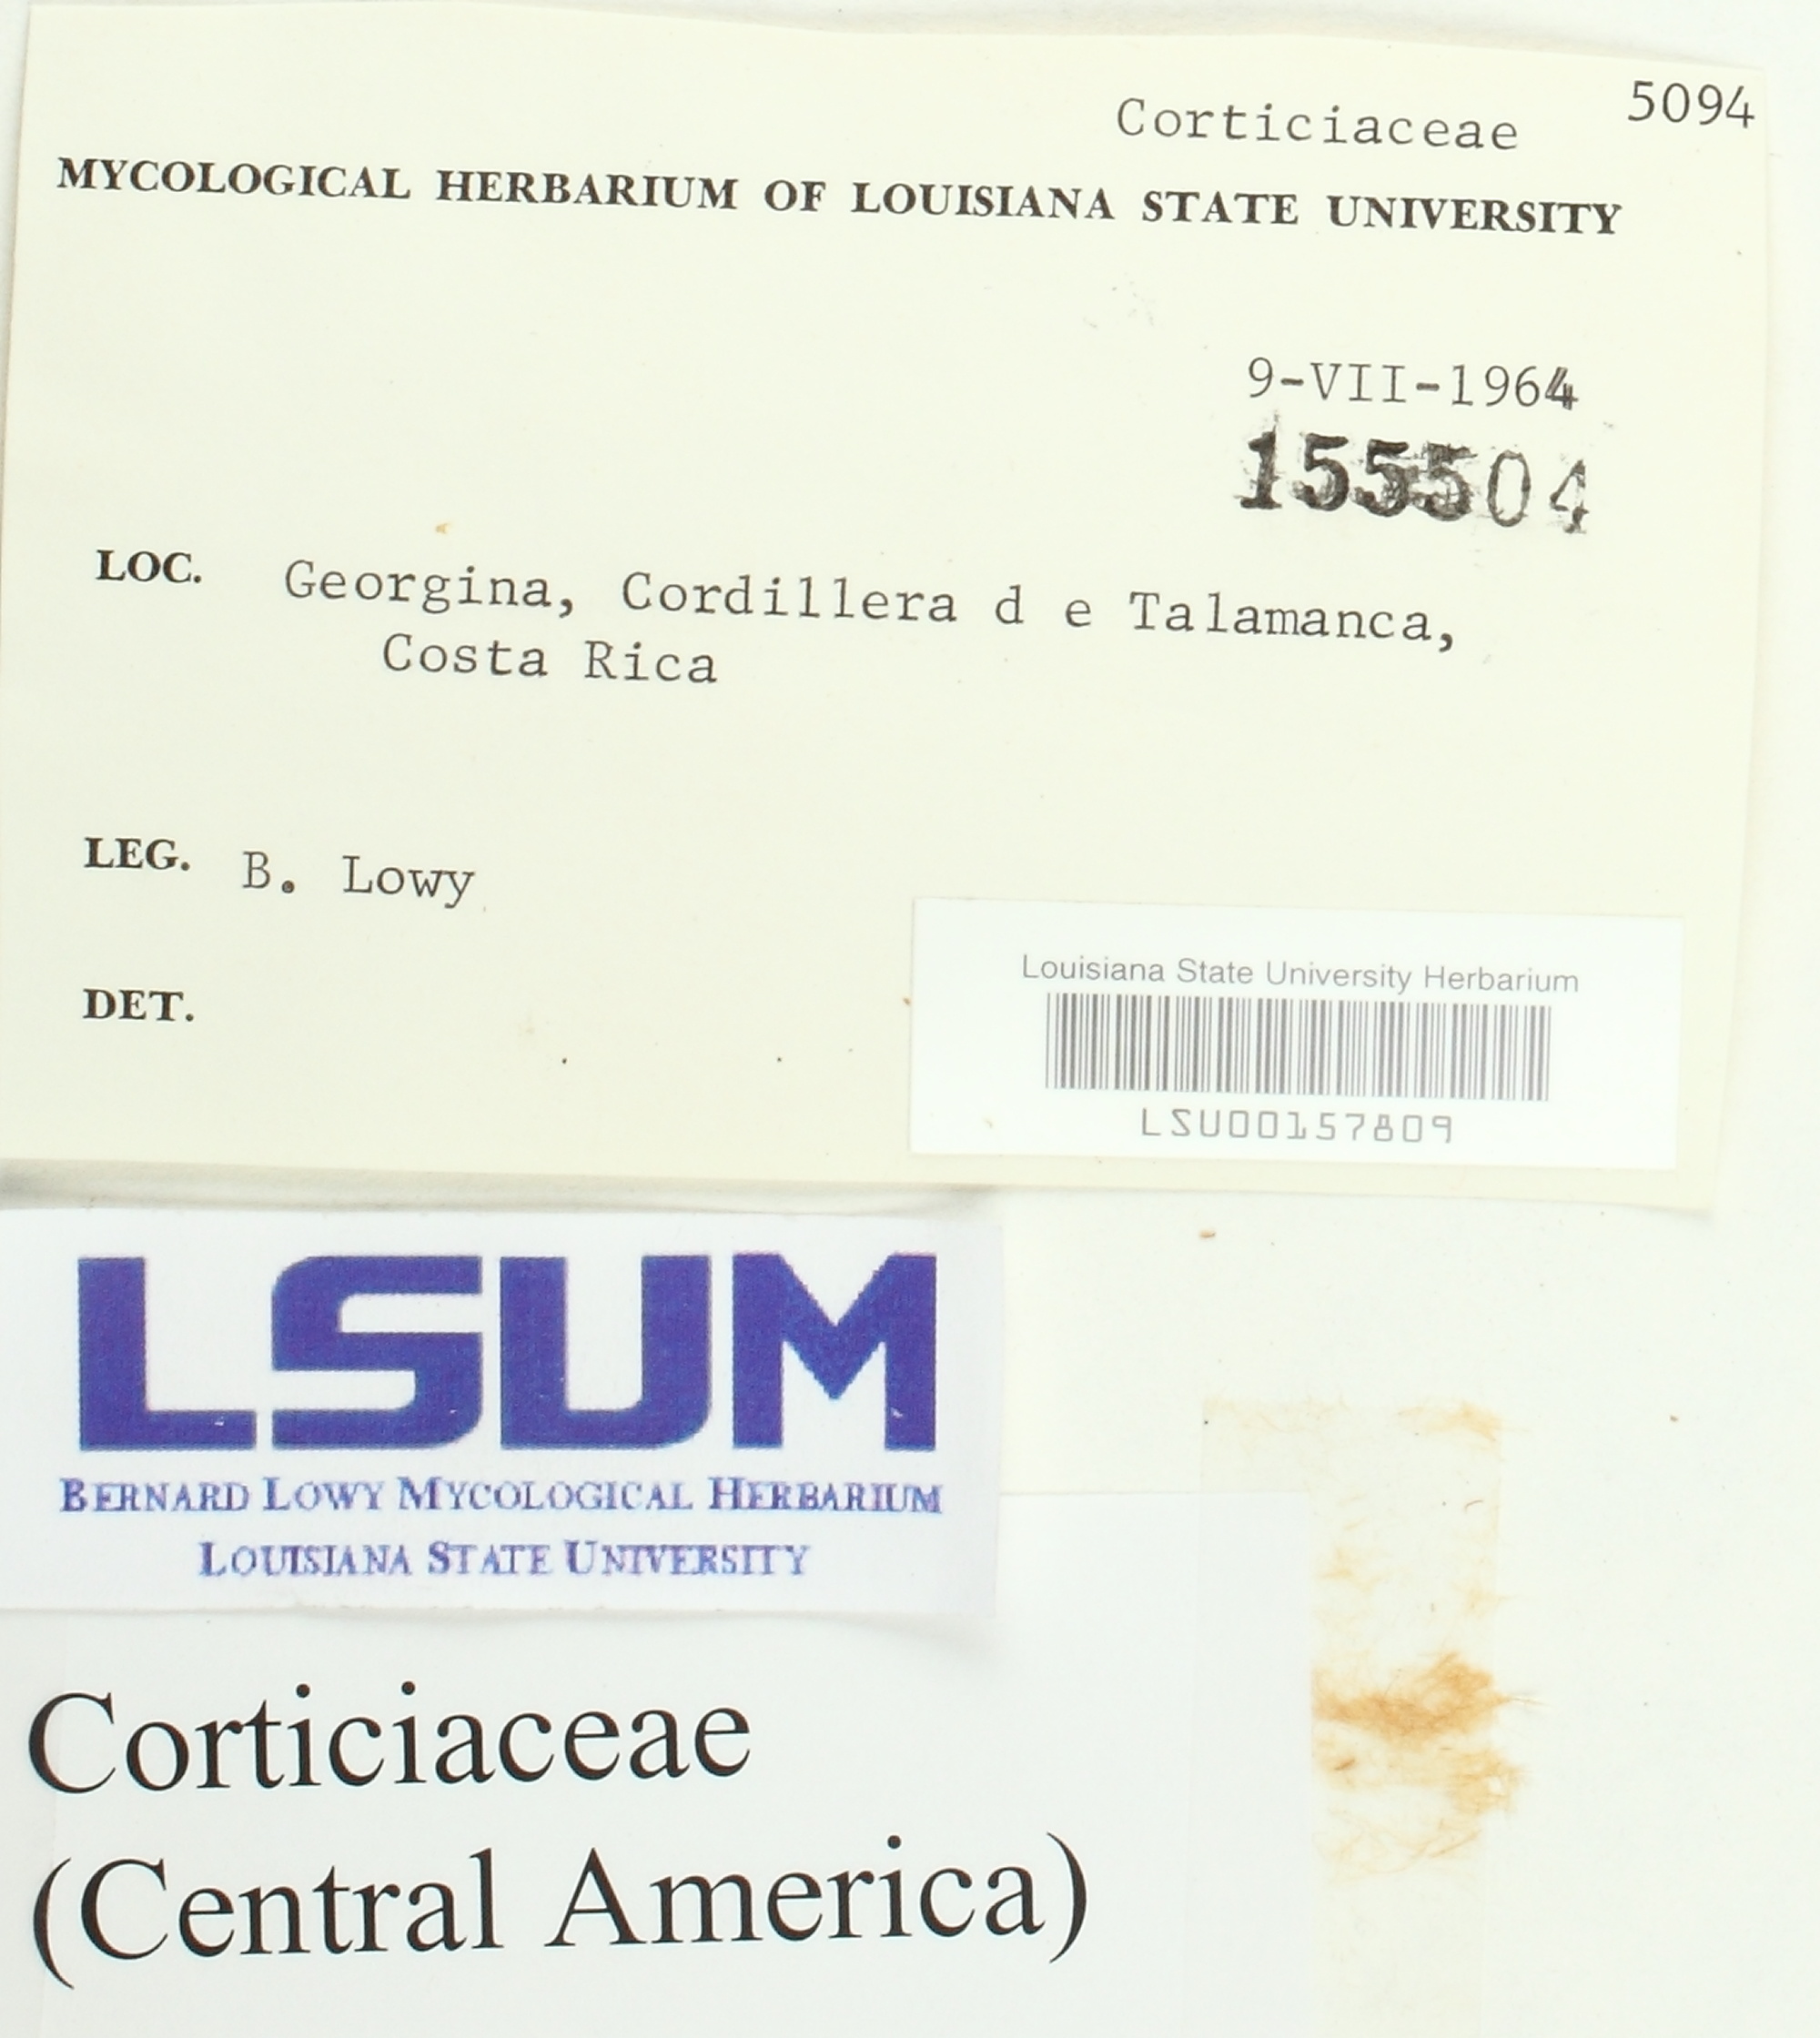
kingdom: Fungi
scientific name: Fungi
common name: Fungi
